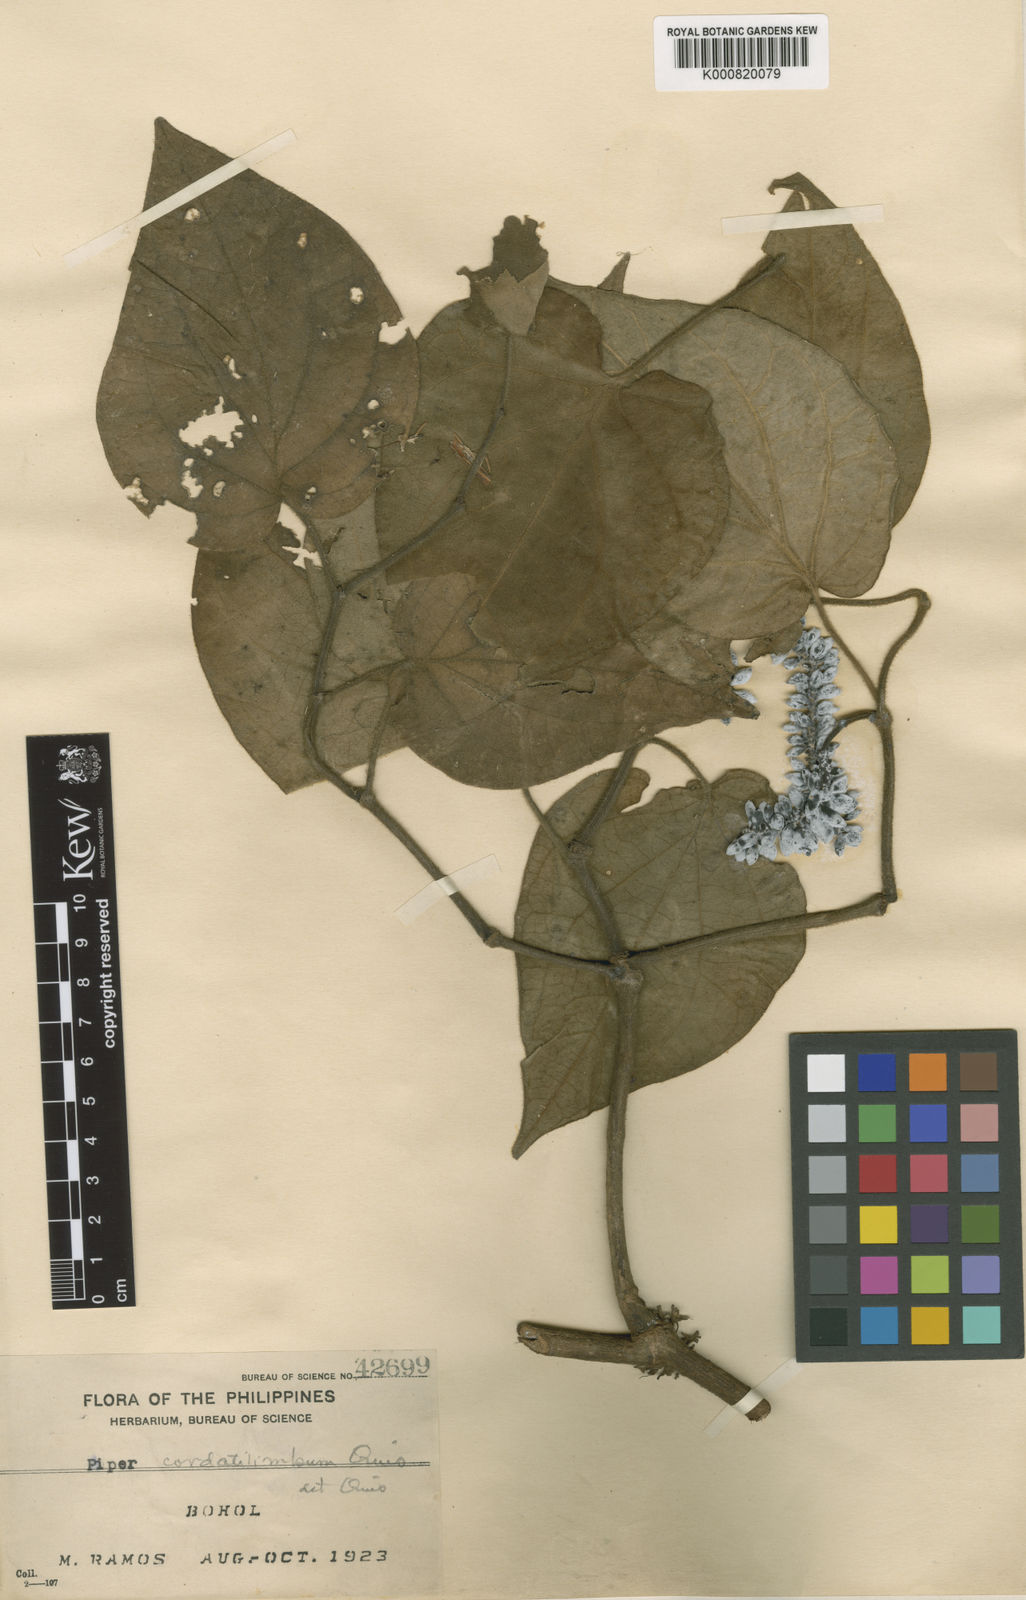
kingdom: Plantae
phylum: Tracheophyta
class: Magnoliopsida
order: Piperales
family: Piperaceae
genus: Piper
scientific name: Piper cordatilimbum
